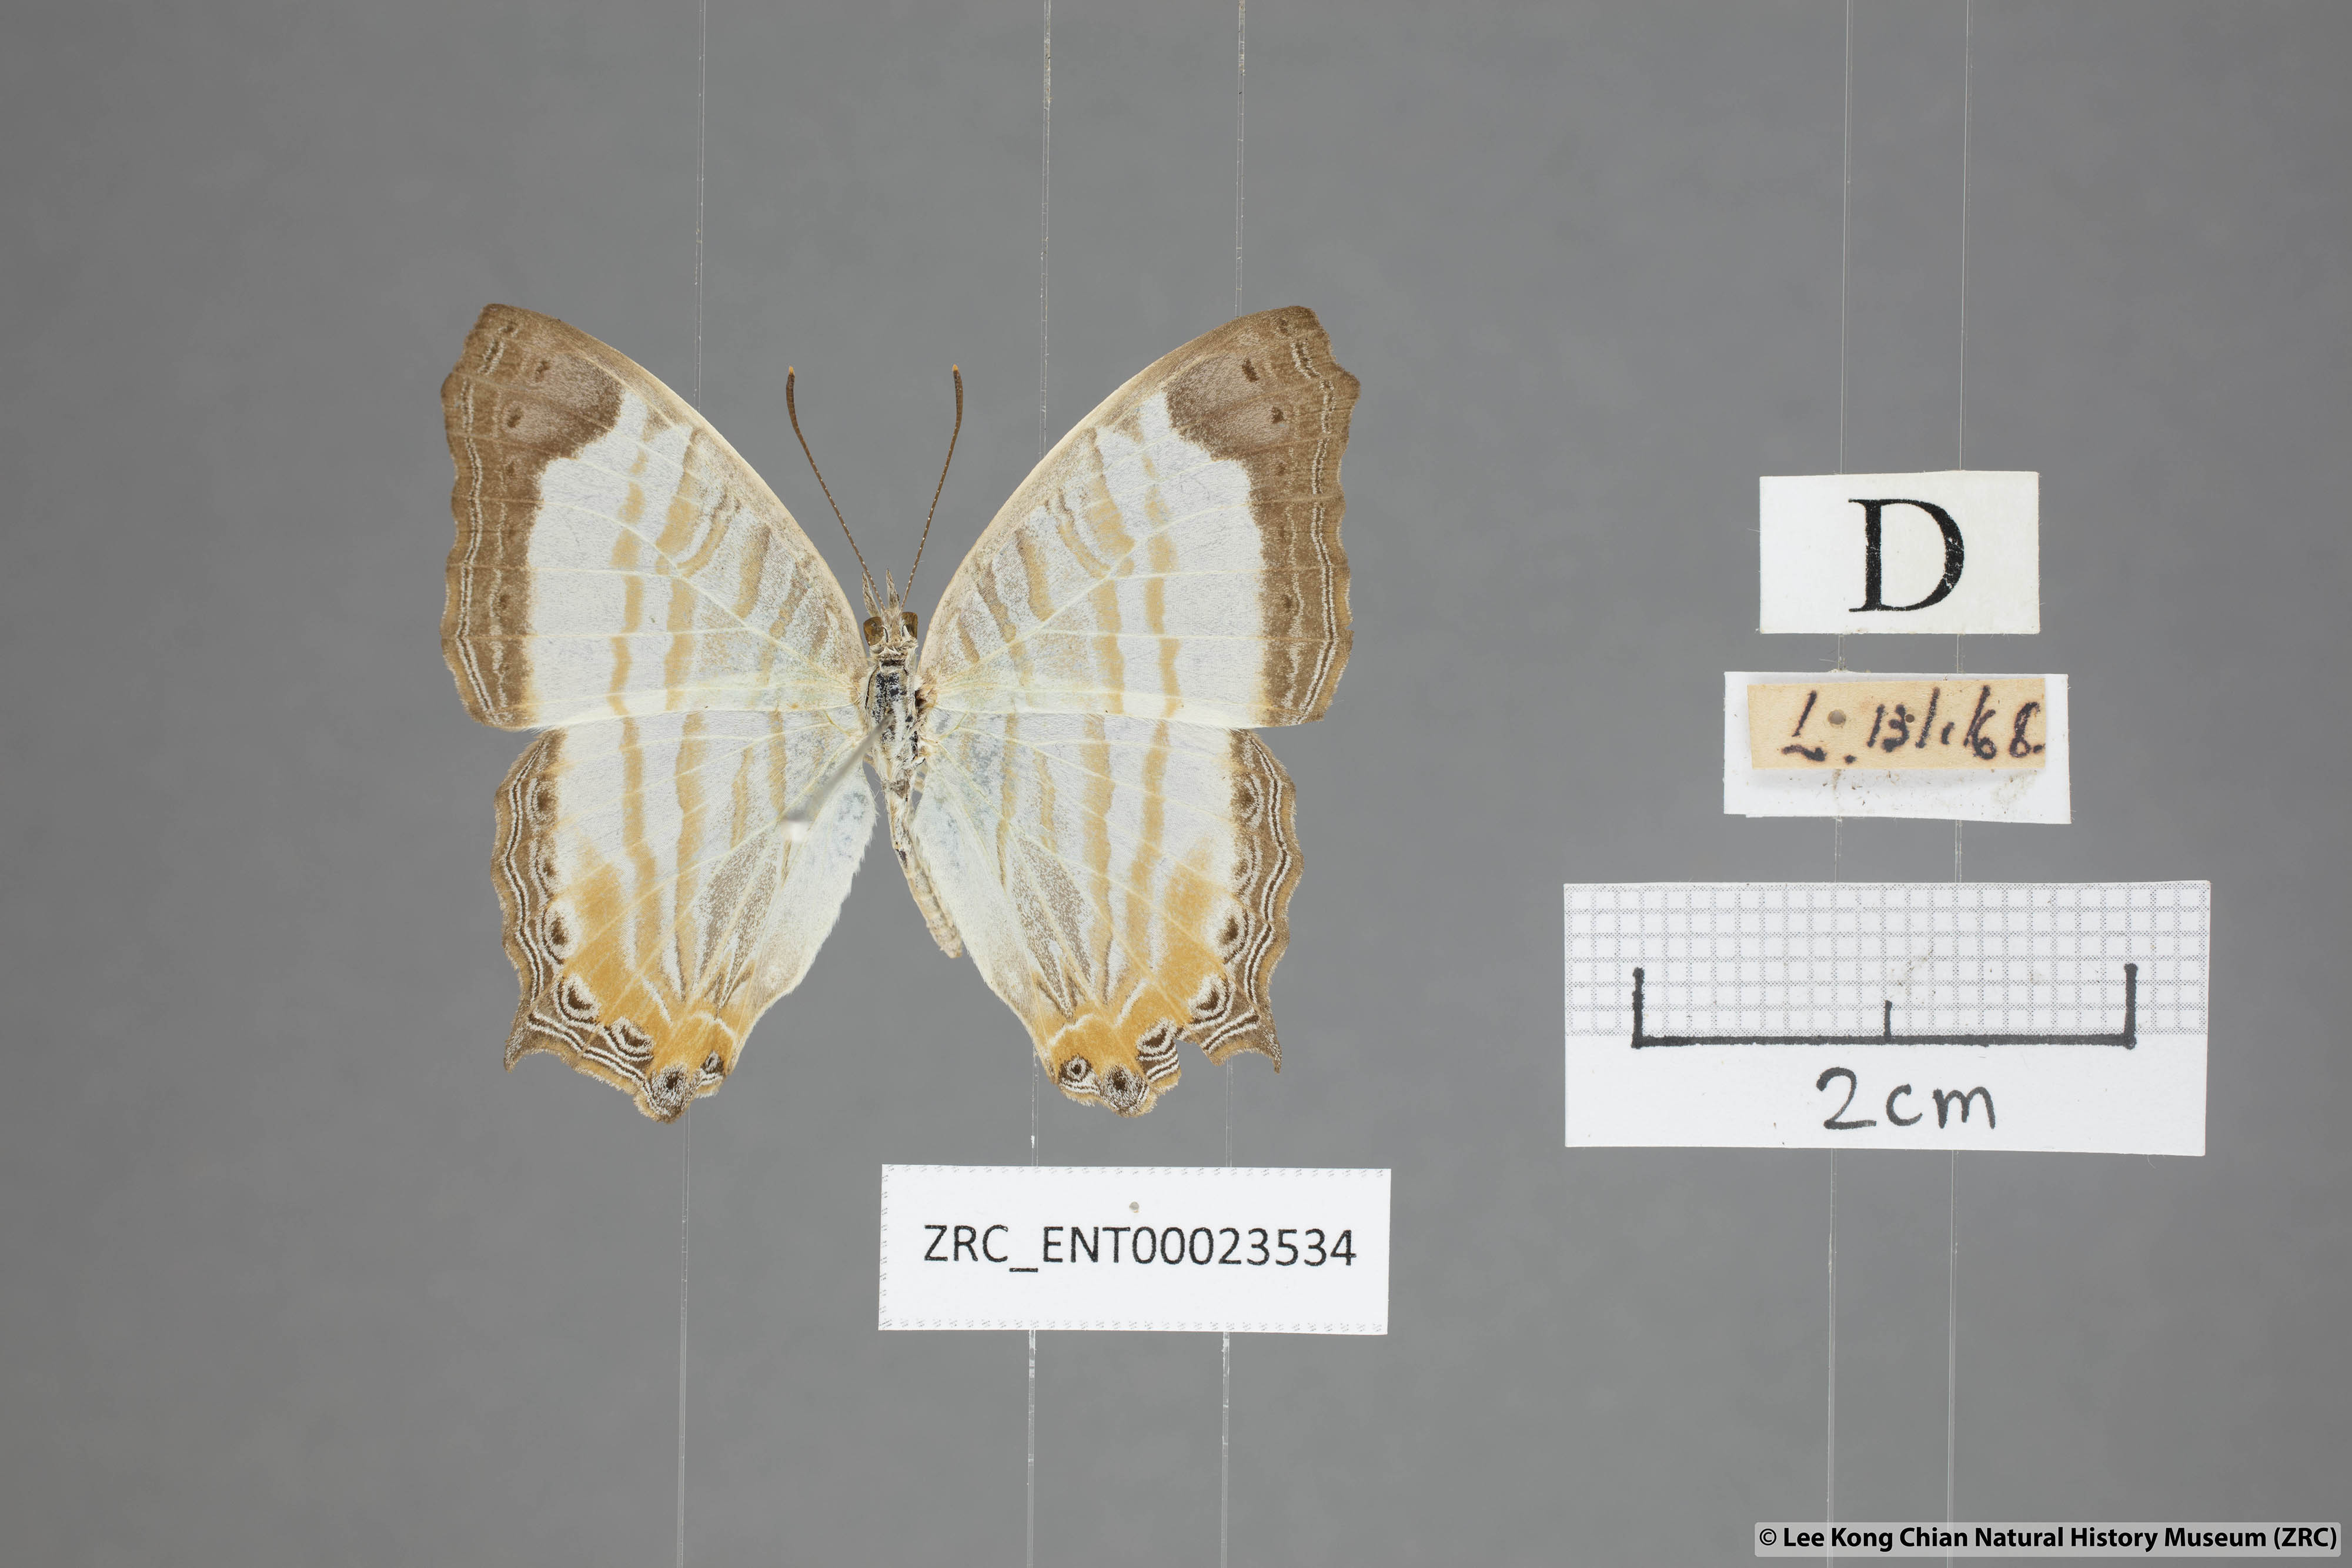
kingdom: Animalia
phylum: Arthropoda
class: Insecta
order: Lepidoptera
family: Nymphalidae
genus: Cyrestis
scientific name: Cyrestis themire
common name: Little mapwing
